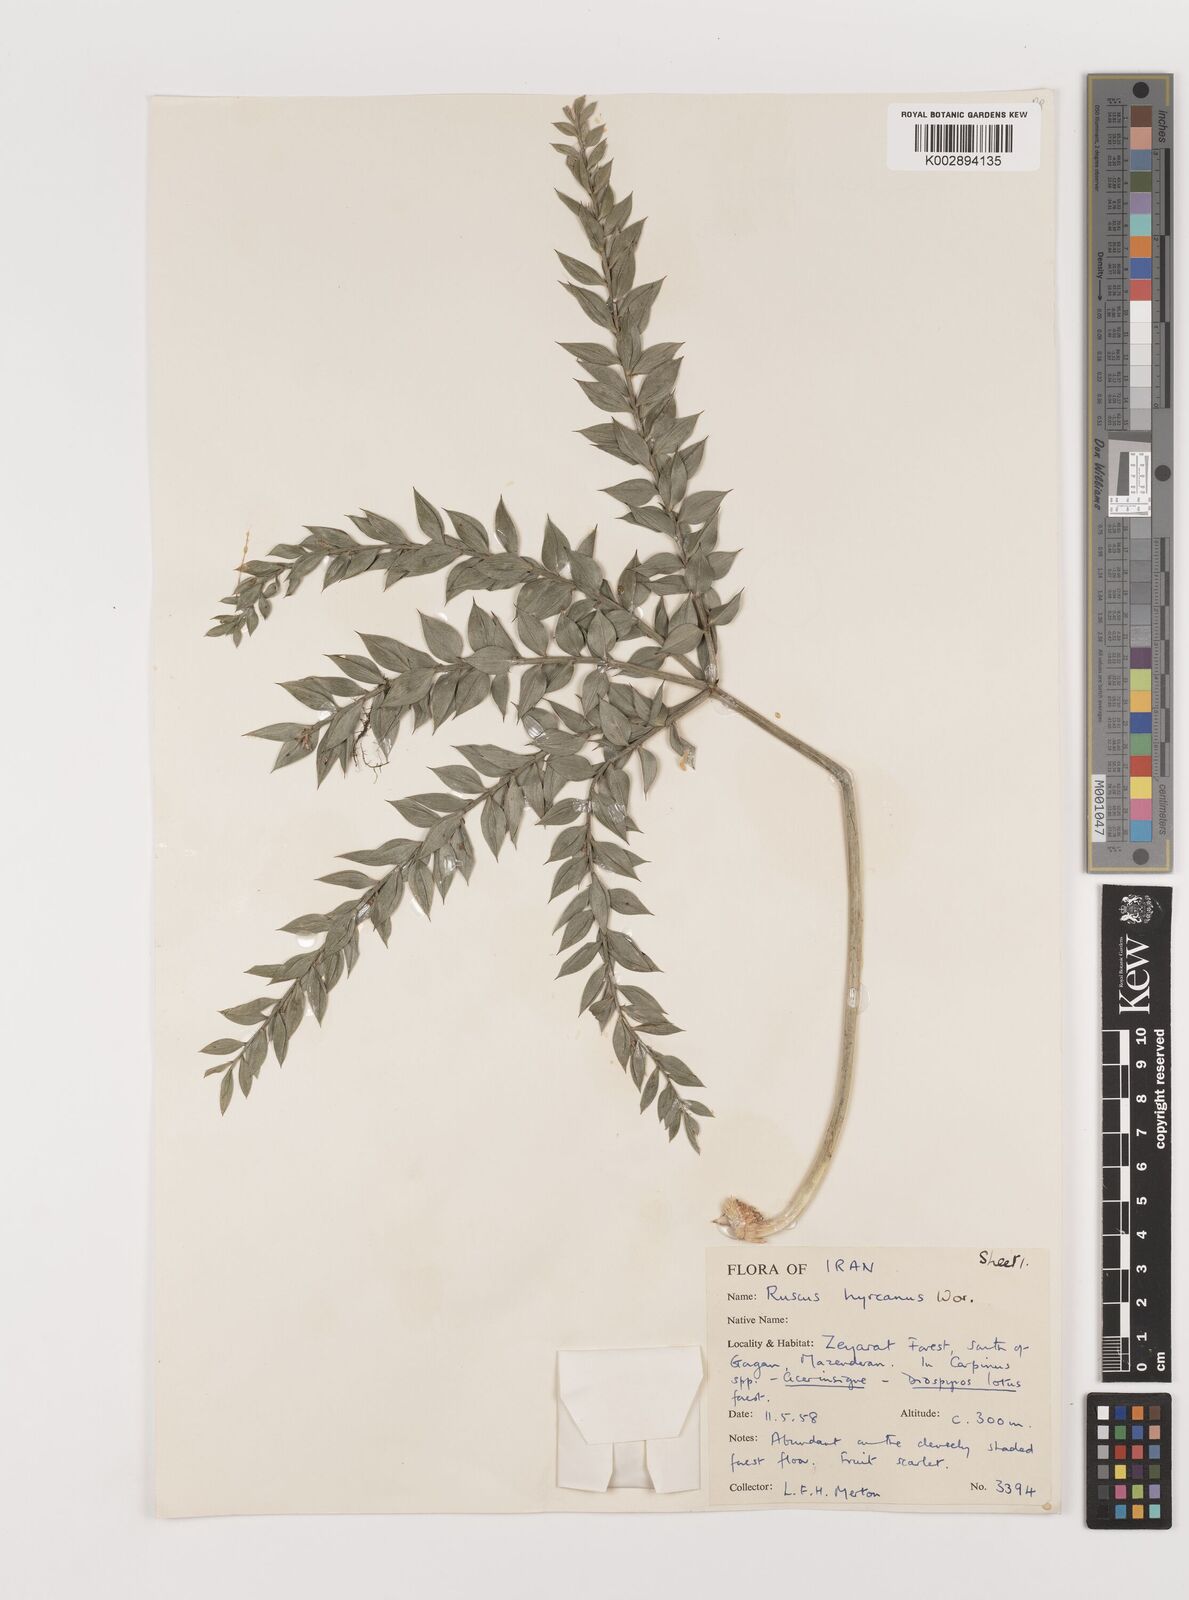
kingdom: Plantae
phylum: Tracheophyta
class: Liliopsida
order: Asparagales
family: Asparagaceae
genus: Ruscus
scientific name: Ruscus hyrcanus
